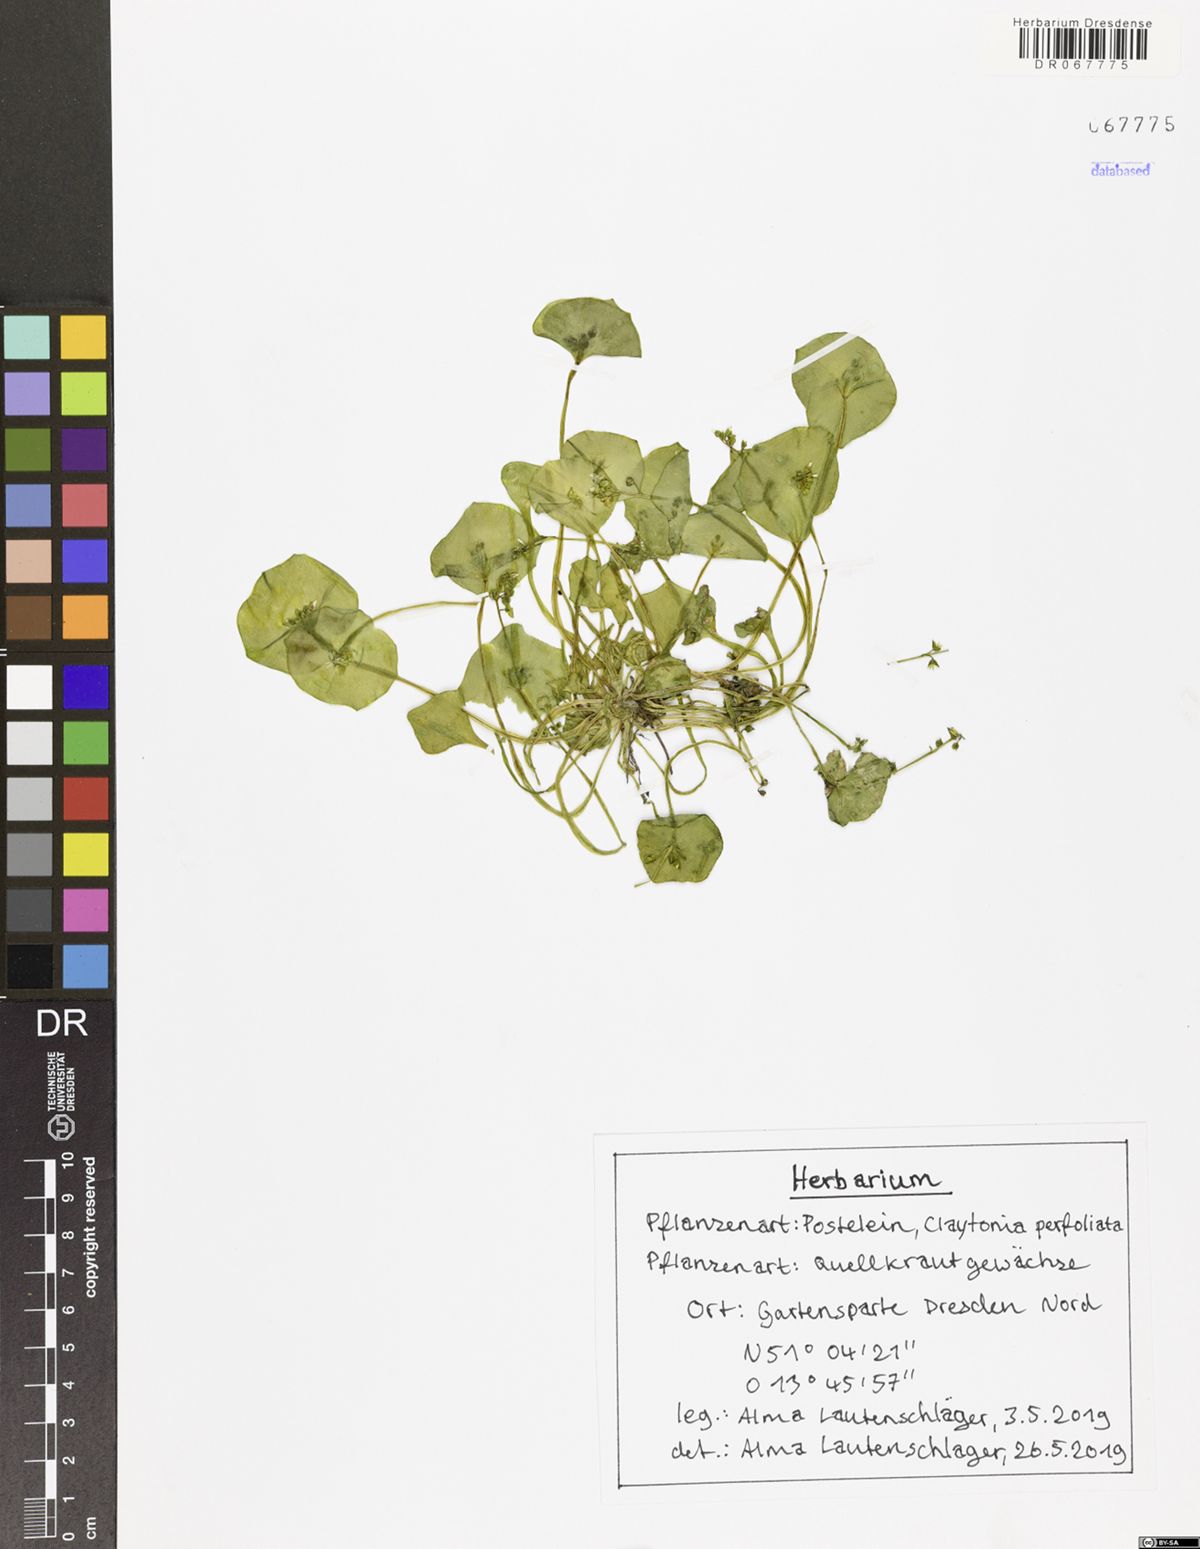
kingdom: Plantae
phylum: Tracheophyta
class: Magnoliopsida
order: Caryophyllales
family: Montiaceae
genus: Claytonia
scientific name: Claytonia perfoliata
